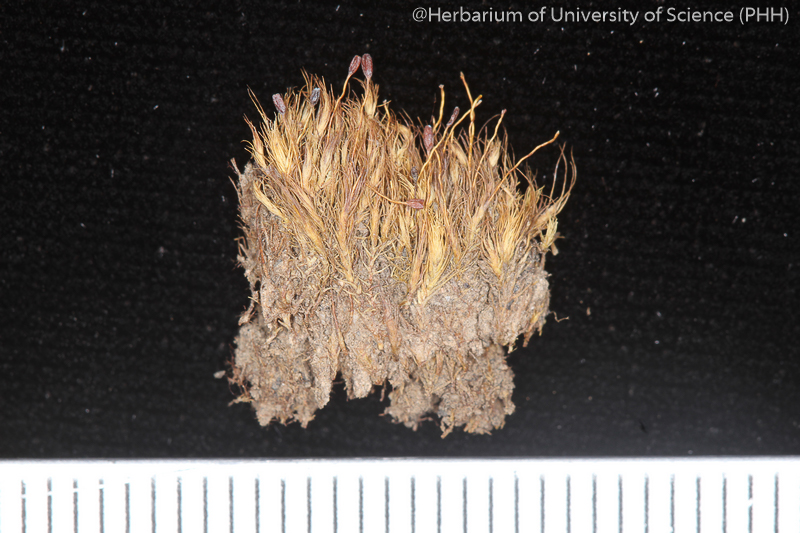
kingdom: Plantae
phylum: Bryophyta
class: Bryopsida
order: Dicranales
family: Dicranellaceae
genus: Leptotrichella
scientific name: Leptotrichella annamensis
